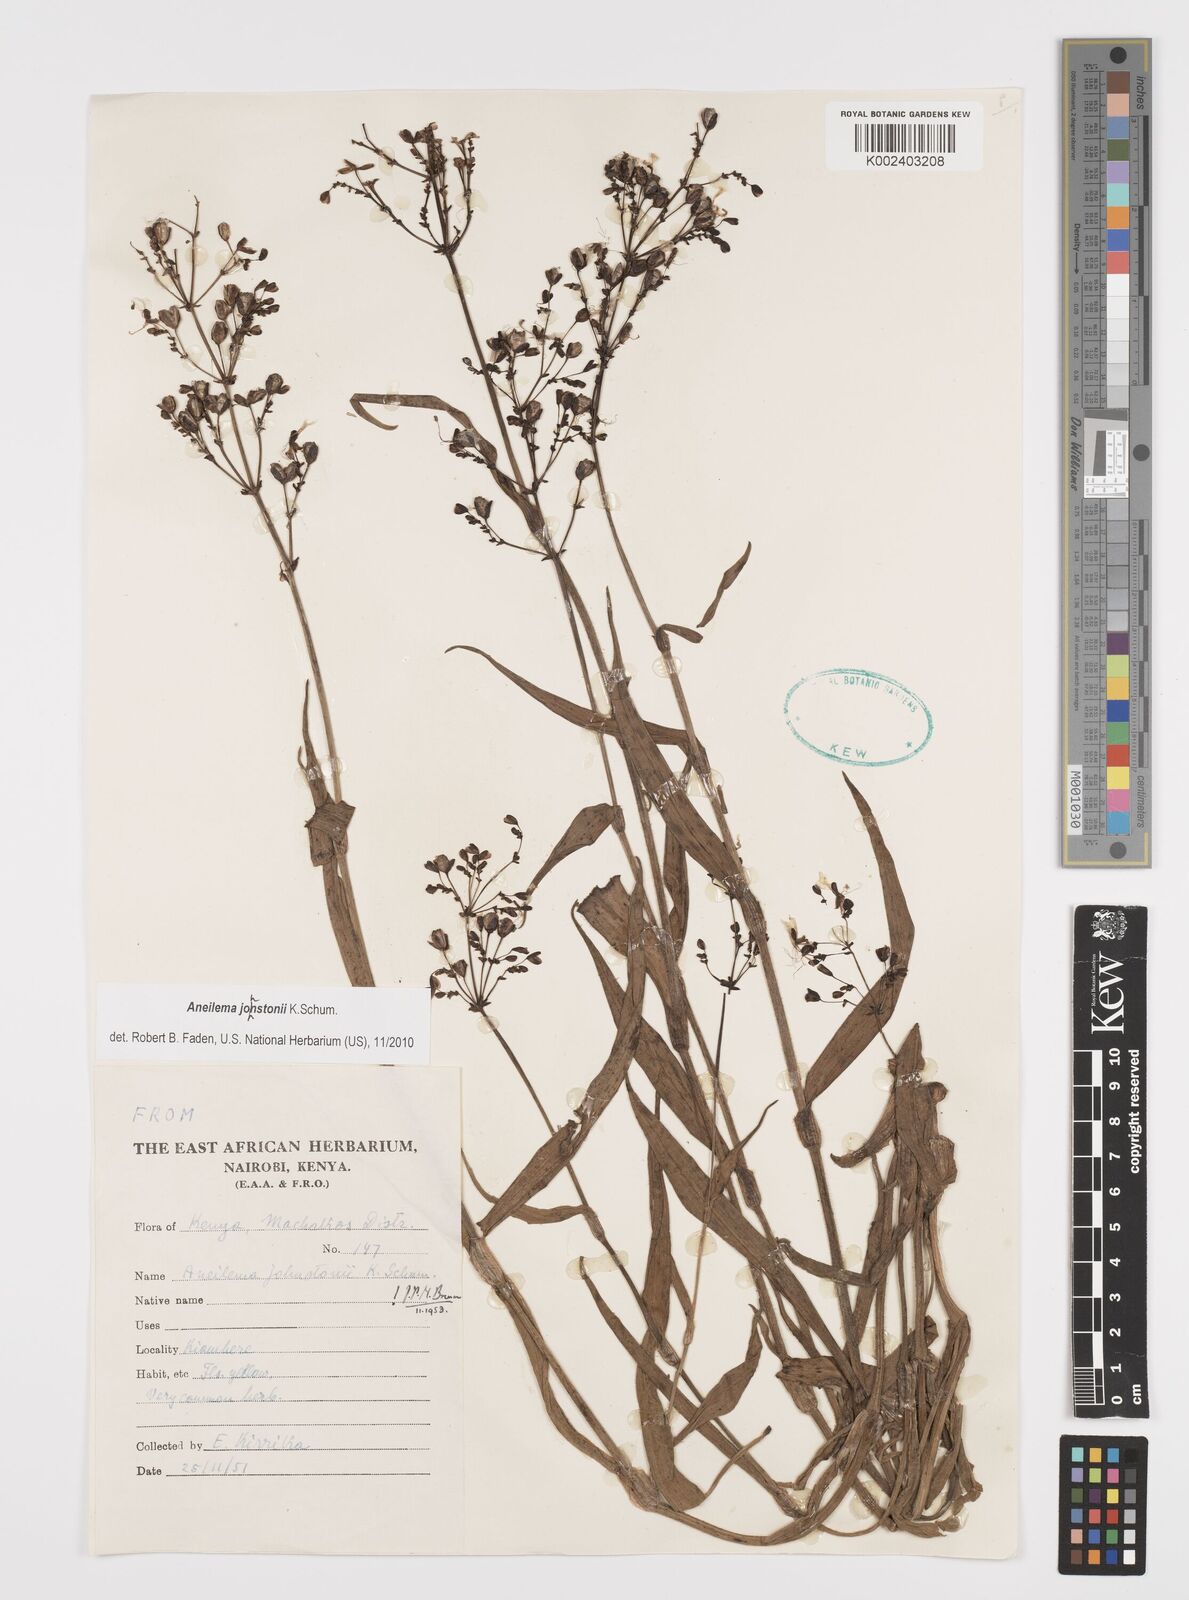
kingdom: Plantae
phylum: Tracheophyta
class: Liliopsida
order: Commelinales
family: Commelinaceae
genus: Aneilema
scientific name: Aneilema johnstonii
